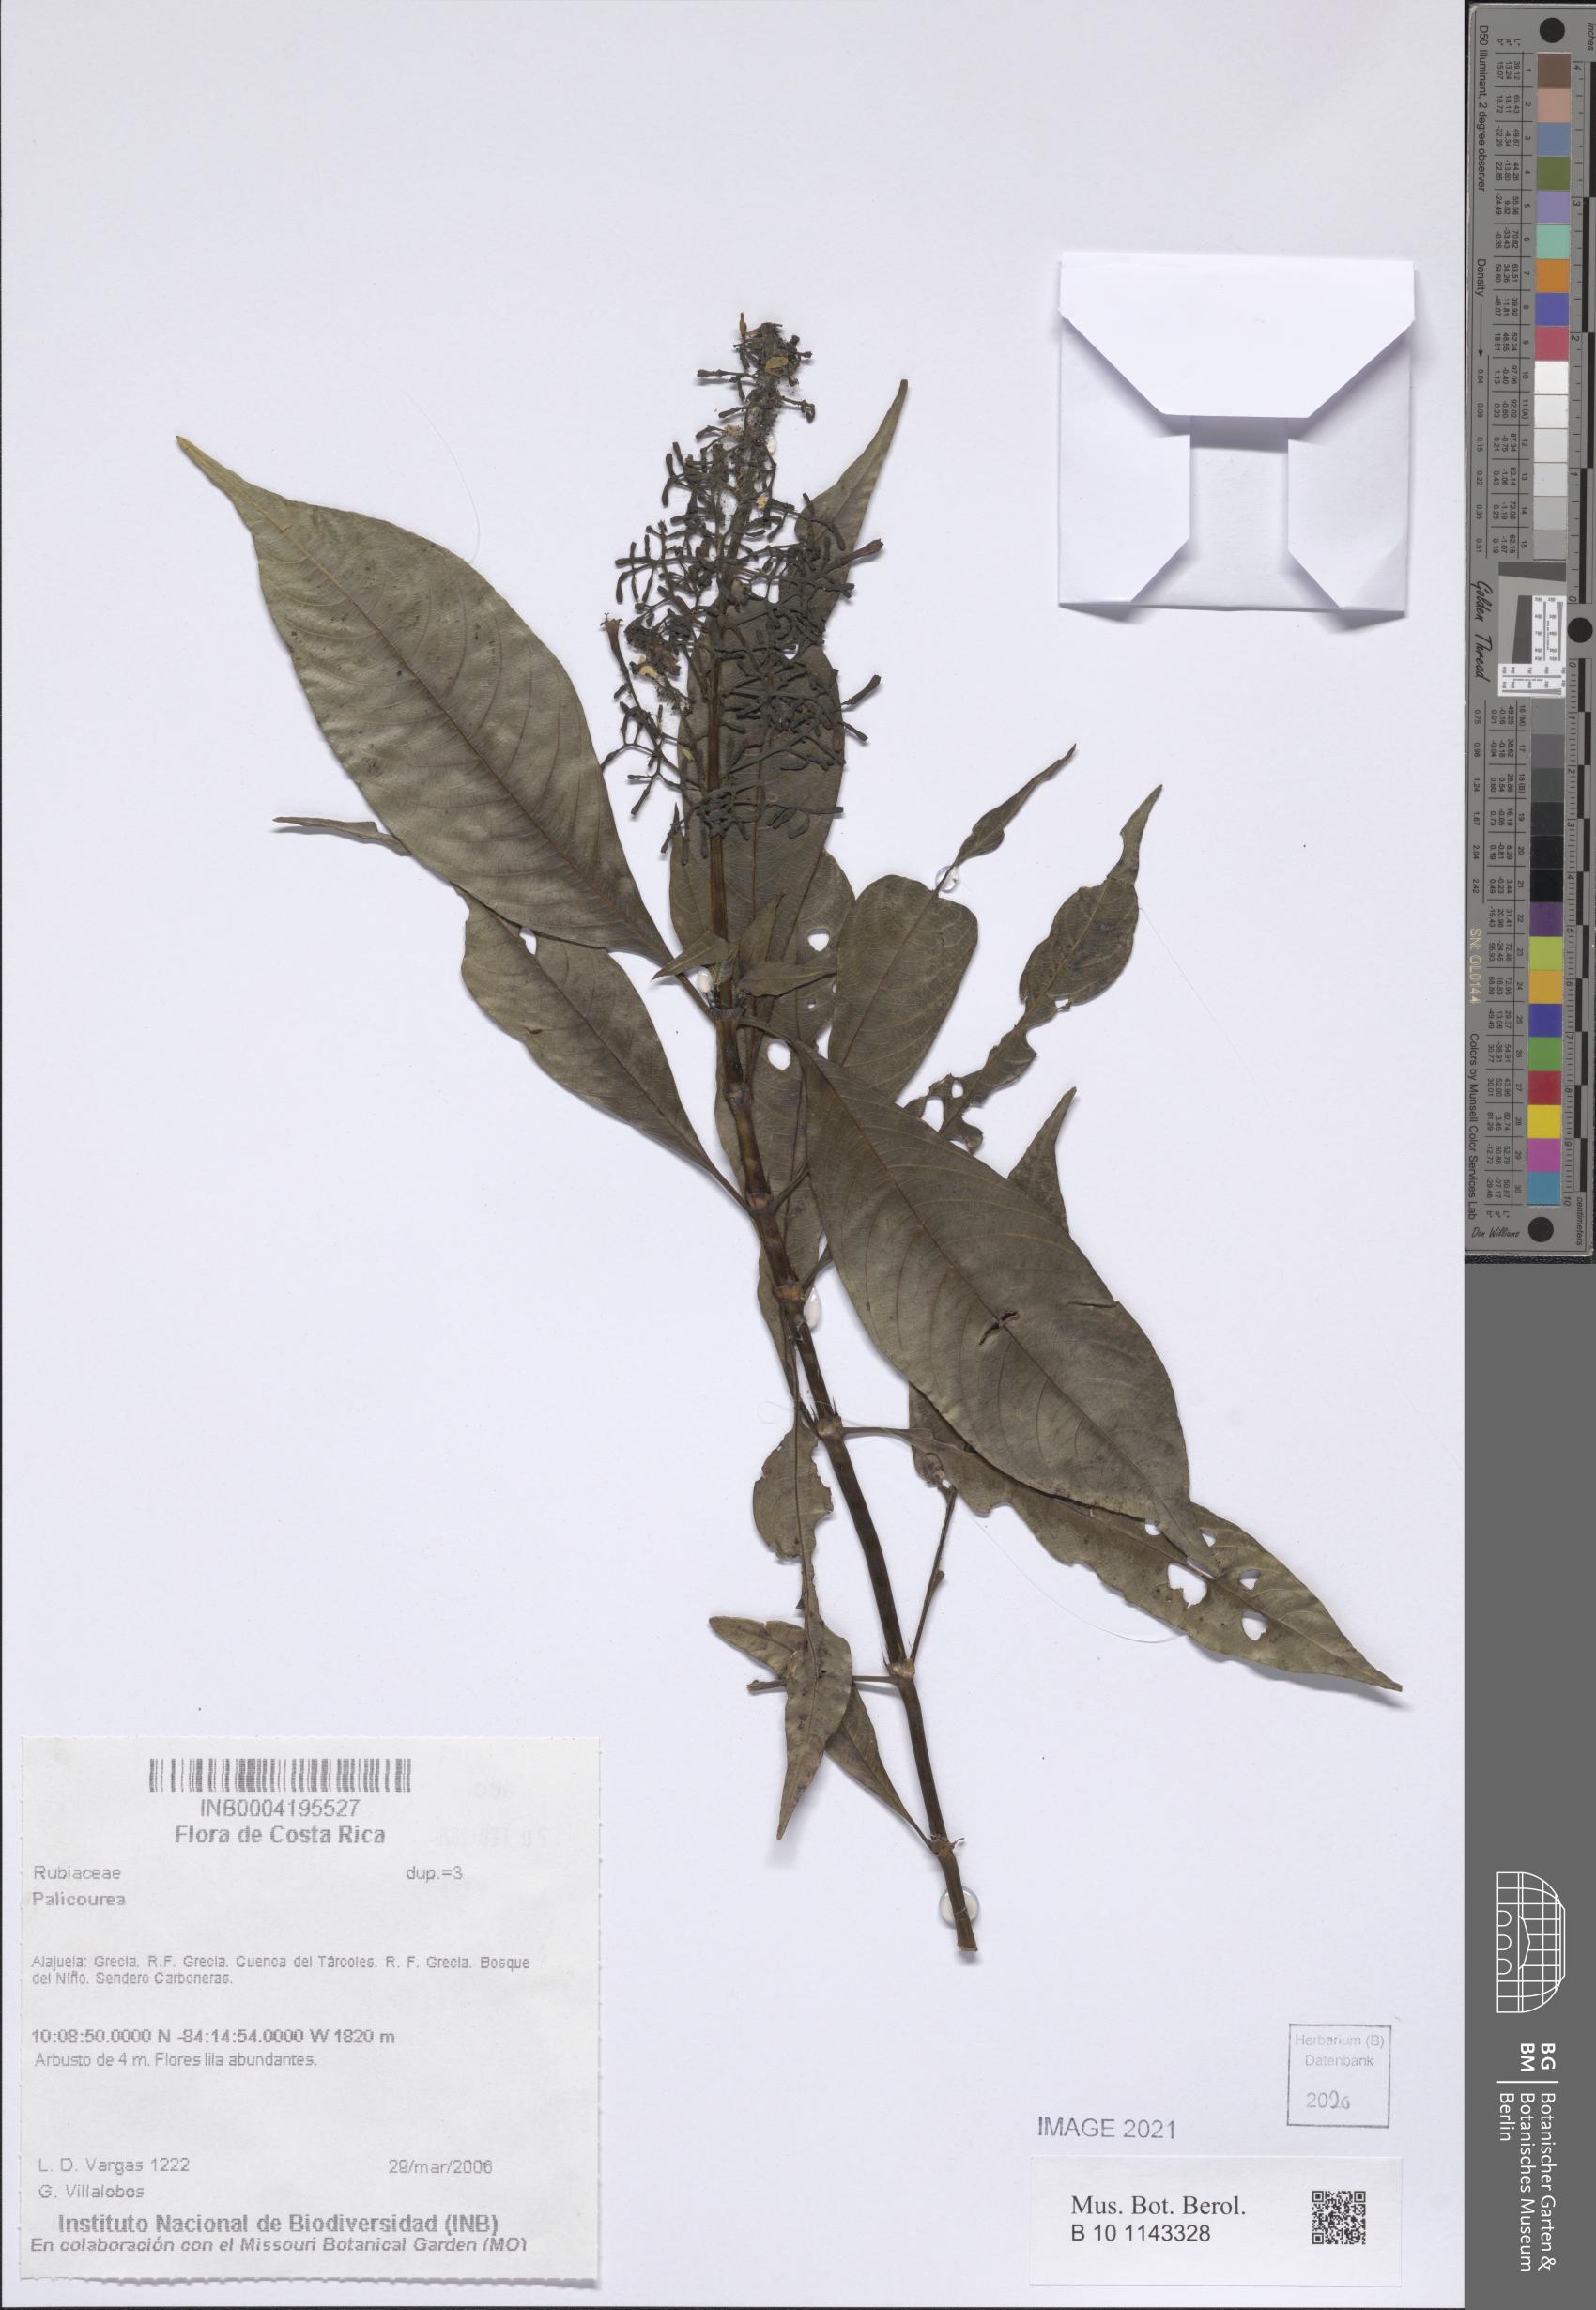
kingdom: Plantae
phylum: Tracheophyta
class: Magnoliopsida
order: Gentianales
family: Rubiaceae
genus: Palicourea
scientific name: Palicourea
